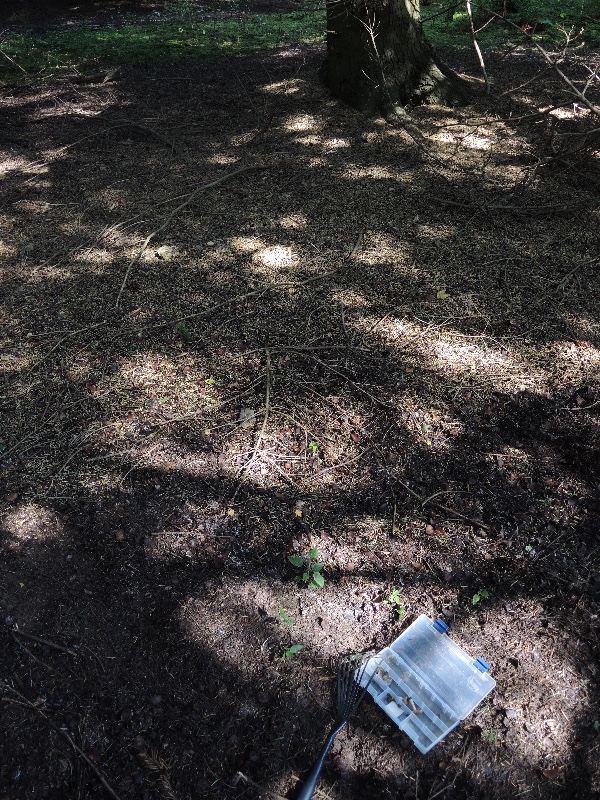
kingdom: Fungi
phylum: Ascomycota
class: Pezizomycetes
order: Pezizales
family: Tuberaceae
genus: Tuber
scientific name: Tuber rufum
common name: rødbrun trøffel
